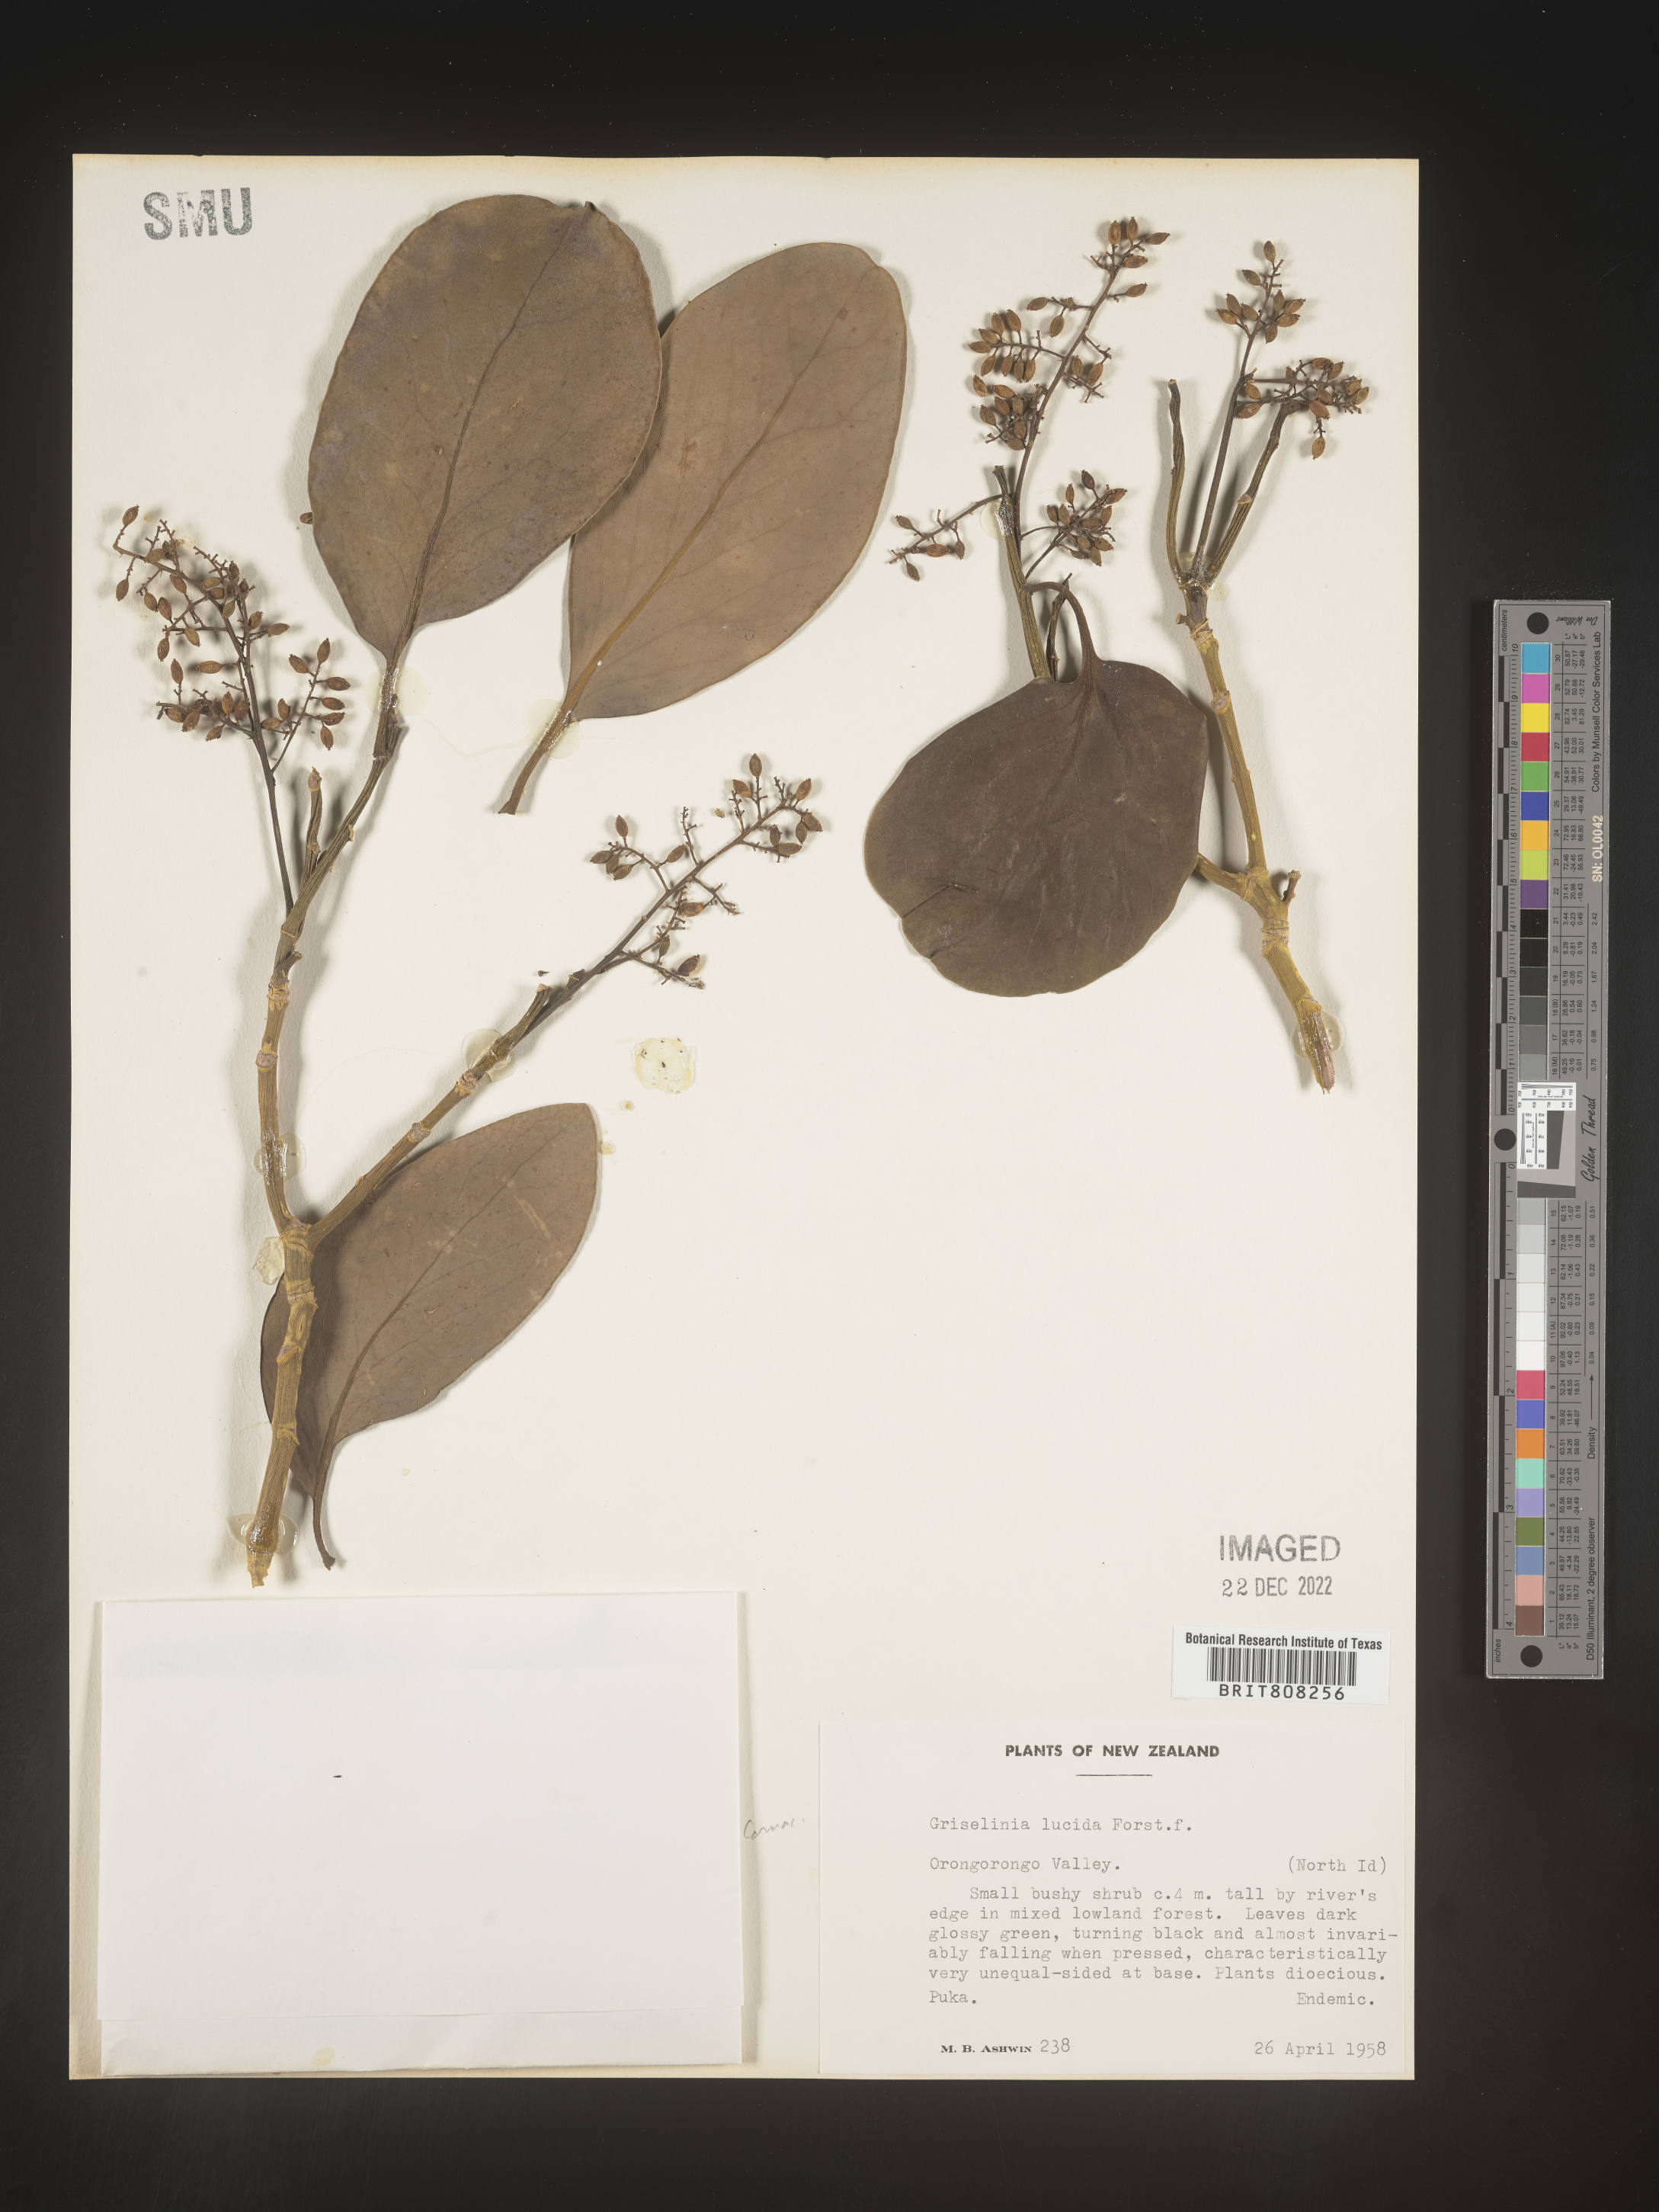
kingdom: Plantae
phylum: Tracheophyta
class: Magnoliopsida
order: Apiales
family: Griseliniaceae
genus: Griselinia
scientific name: Griselinia
